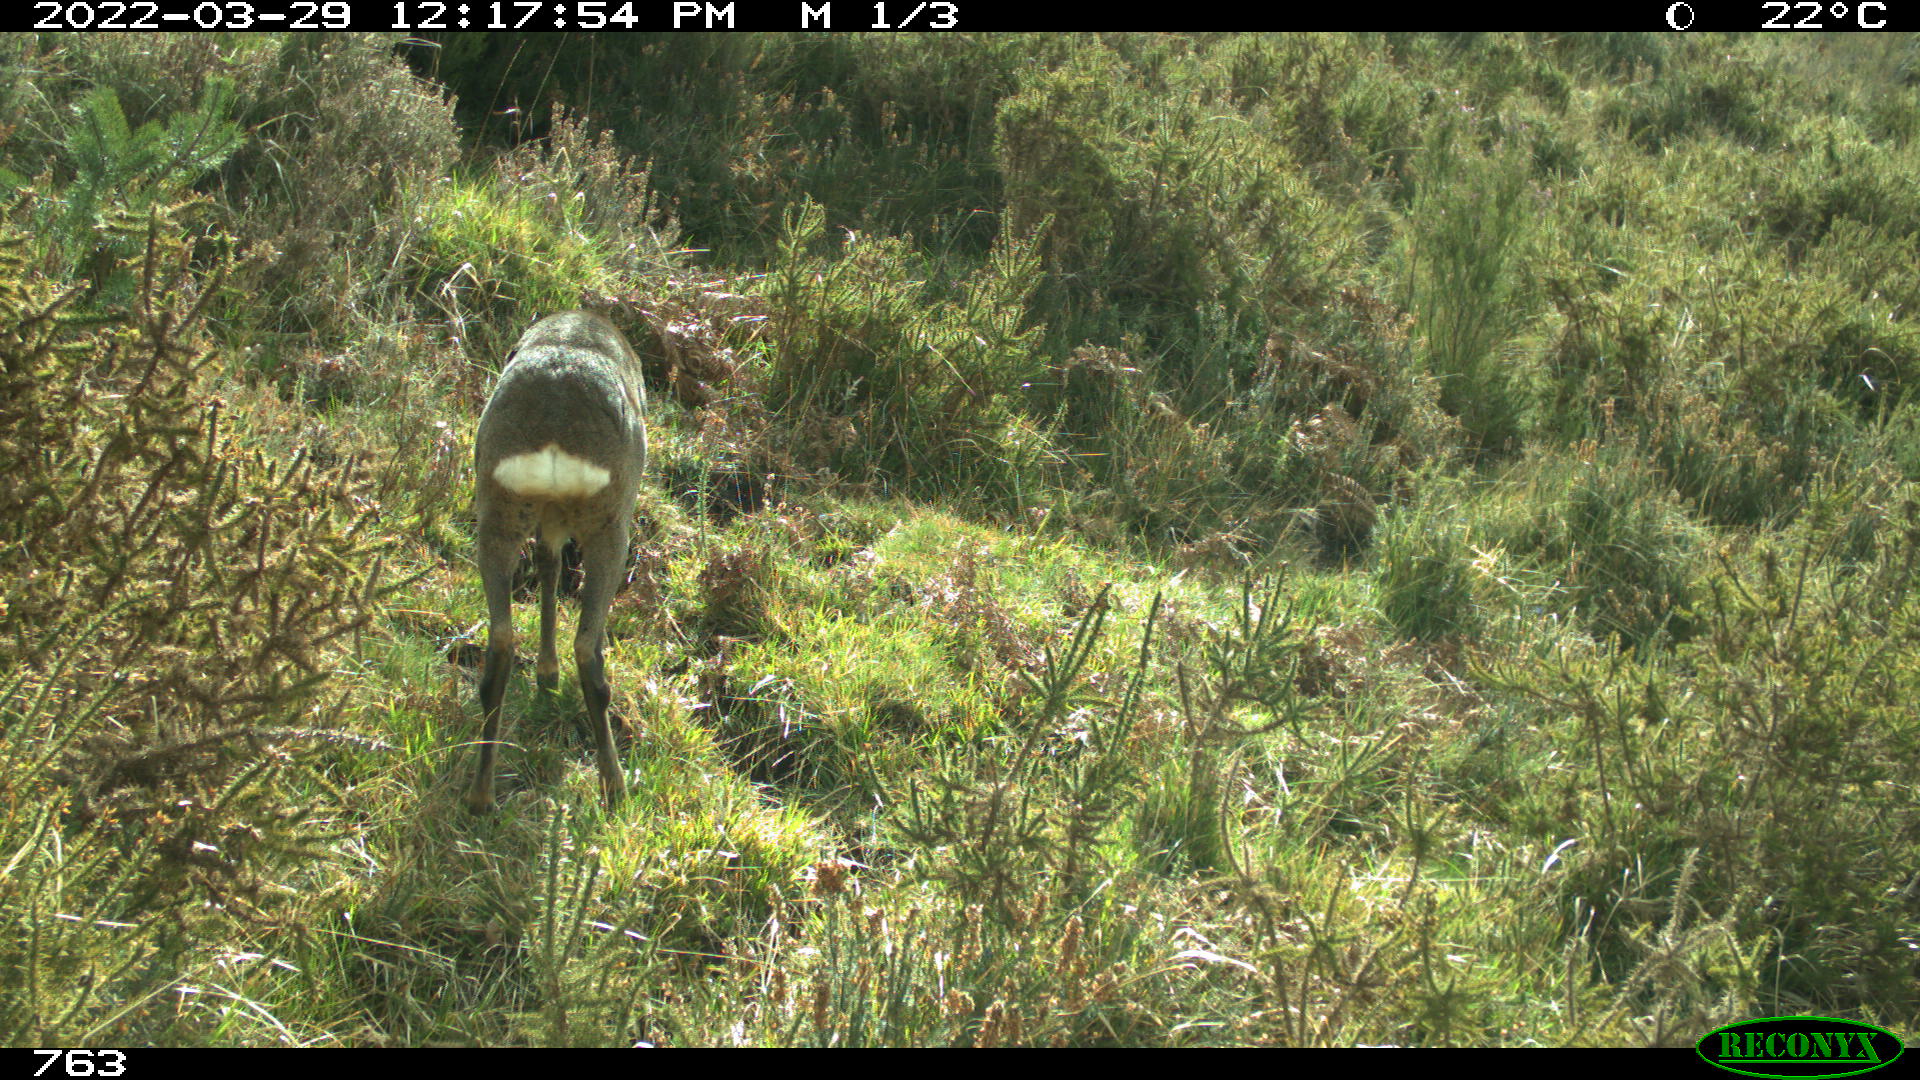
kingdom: Animalia
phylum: Chordata
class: Mammalia
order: Artiodactyla
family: Cervidae
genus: Capreolus
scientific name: Capreolus capreolus
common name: Western roe deer
